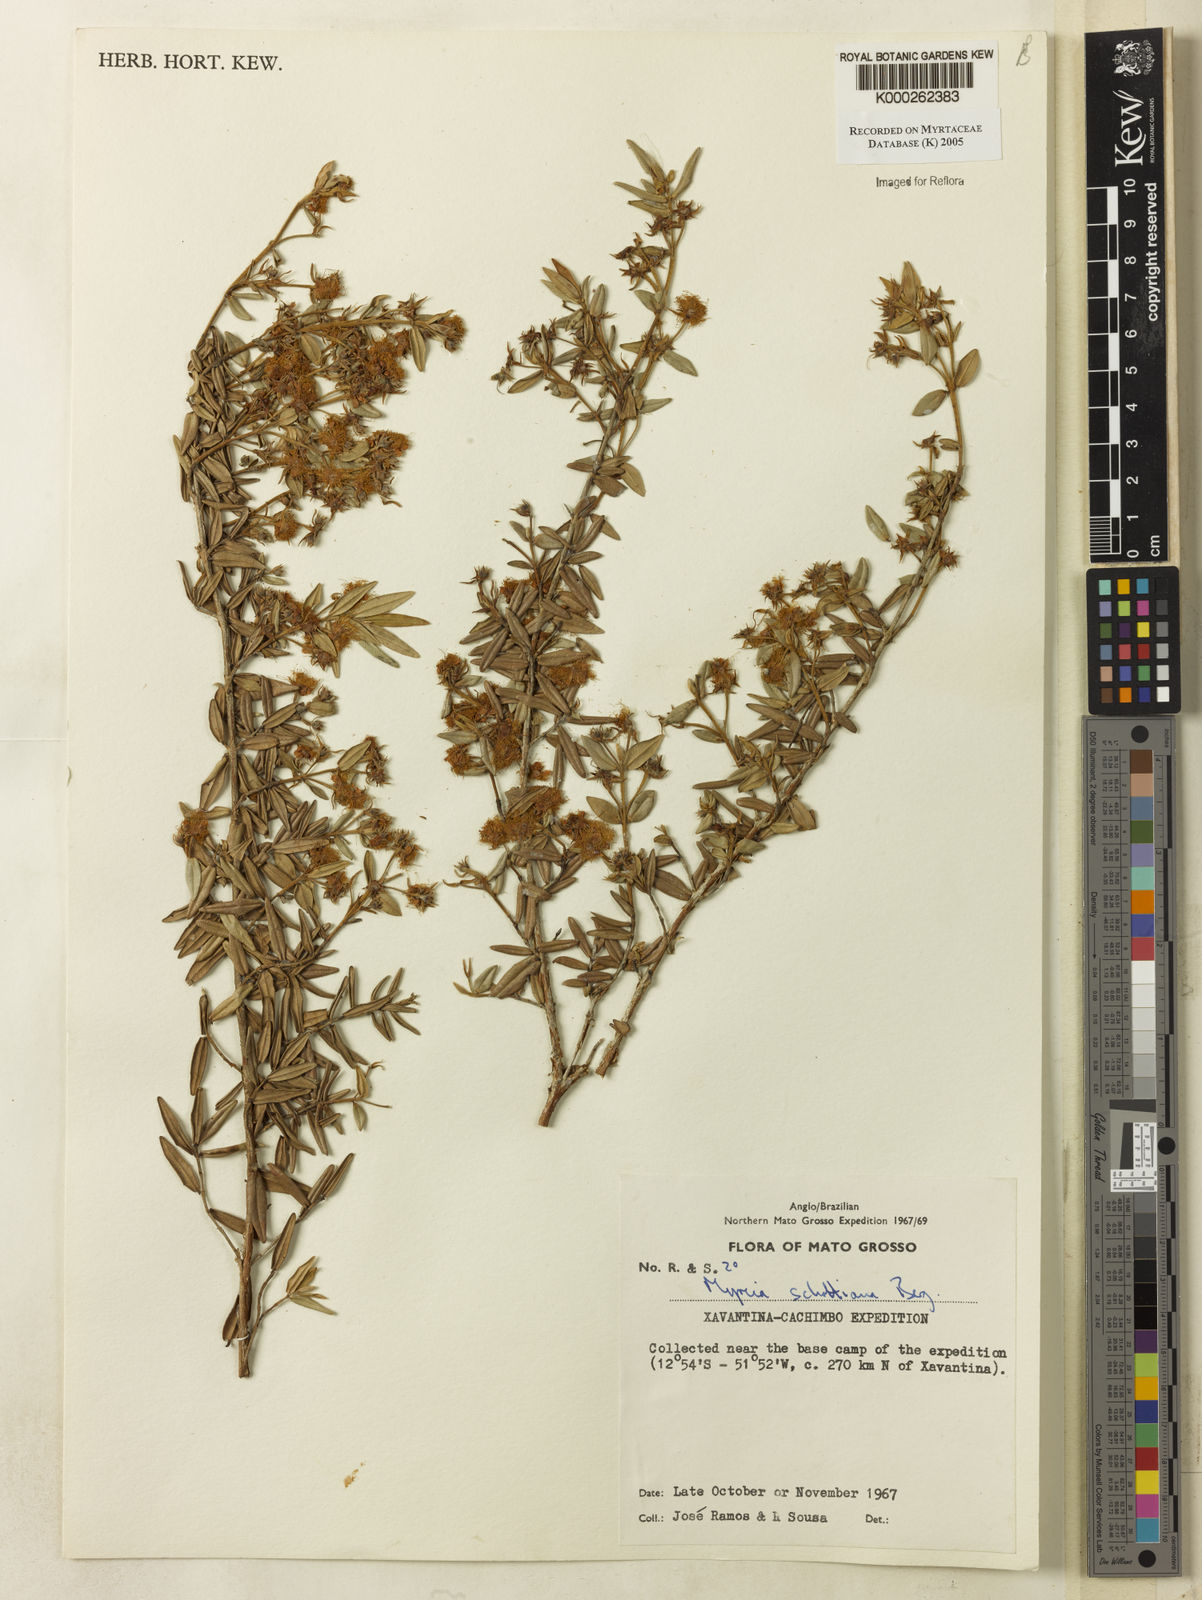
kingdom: Plantae
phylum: Tracheophyta
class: Magnoliopsida
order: Myrtales
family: Myrtaceae
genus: Myrcia
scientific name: Myrcia schottiana
